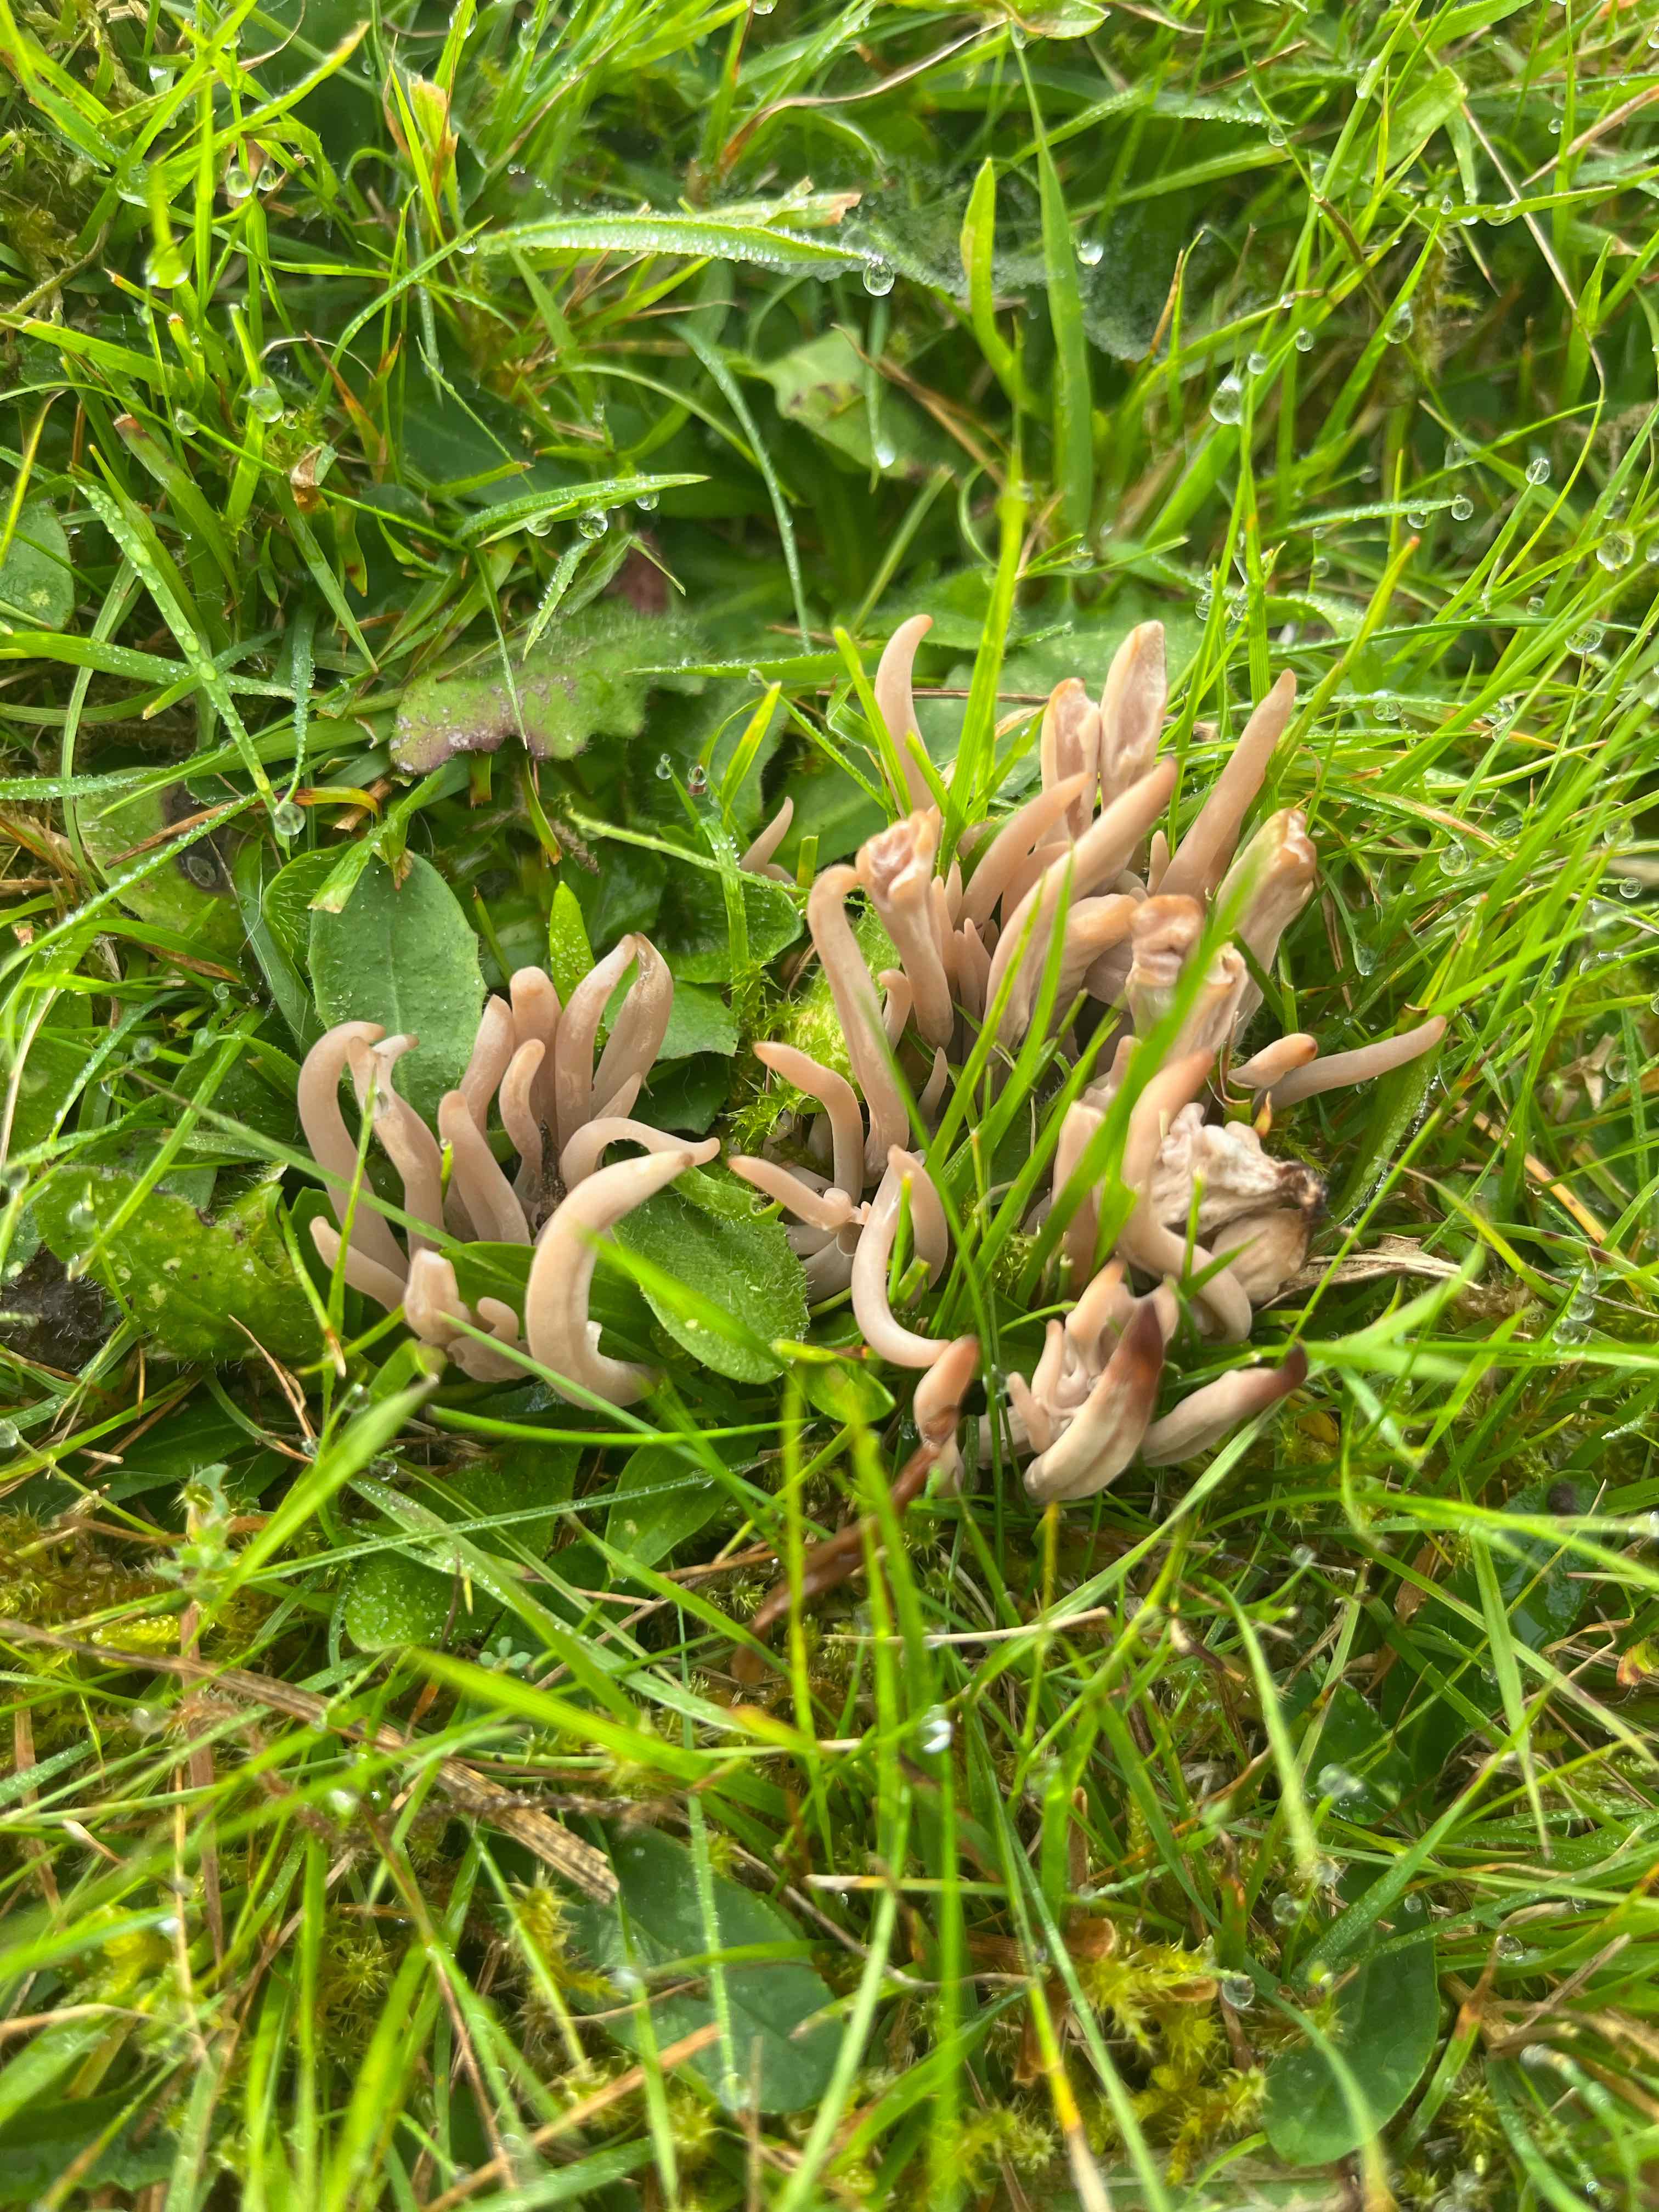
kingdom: Fungi
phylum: Basidiomycota
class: Agaricomycetes
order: Agaricales
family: Clavariaceae
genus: Clavaria
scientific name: Clavaria fumosa
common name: røggrå køllesvamp
